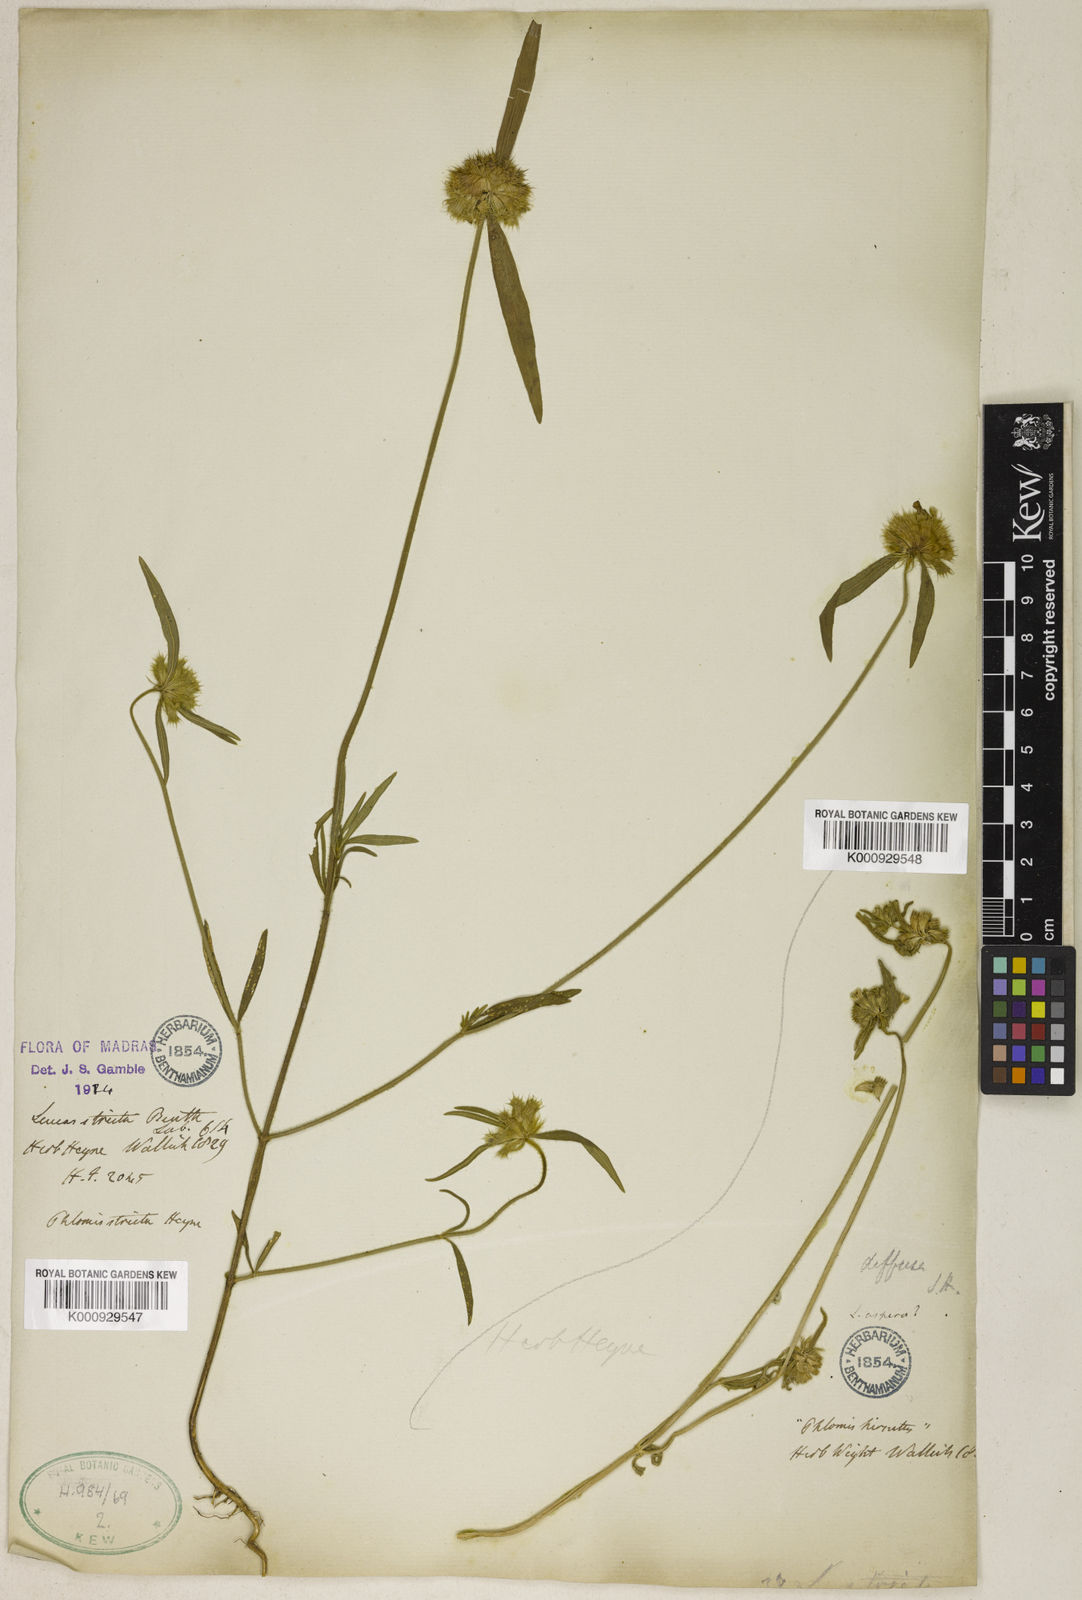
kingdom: Plantae
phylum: Tracheophyta
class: Magnoliopsida
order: Lamiales
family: Lamiaceae
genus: Leucas
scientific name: Leucas stricta
